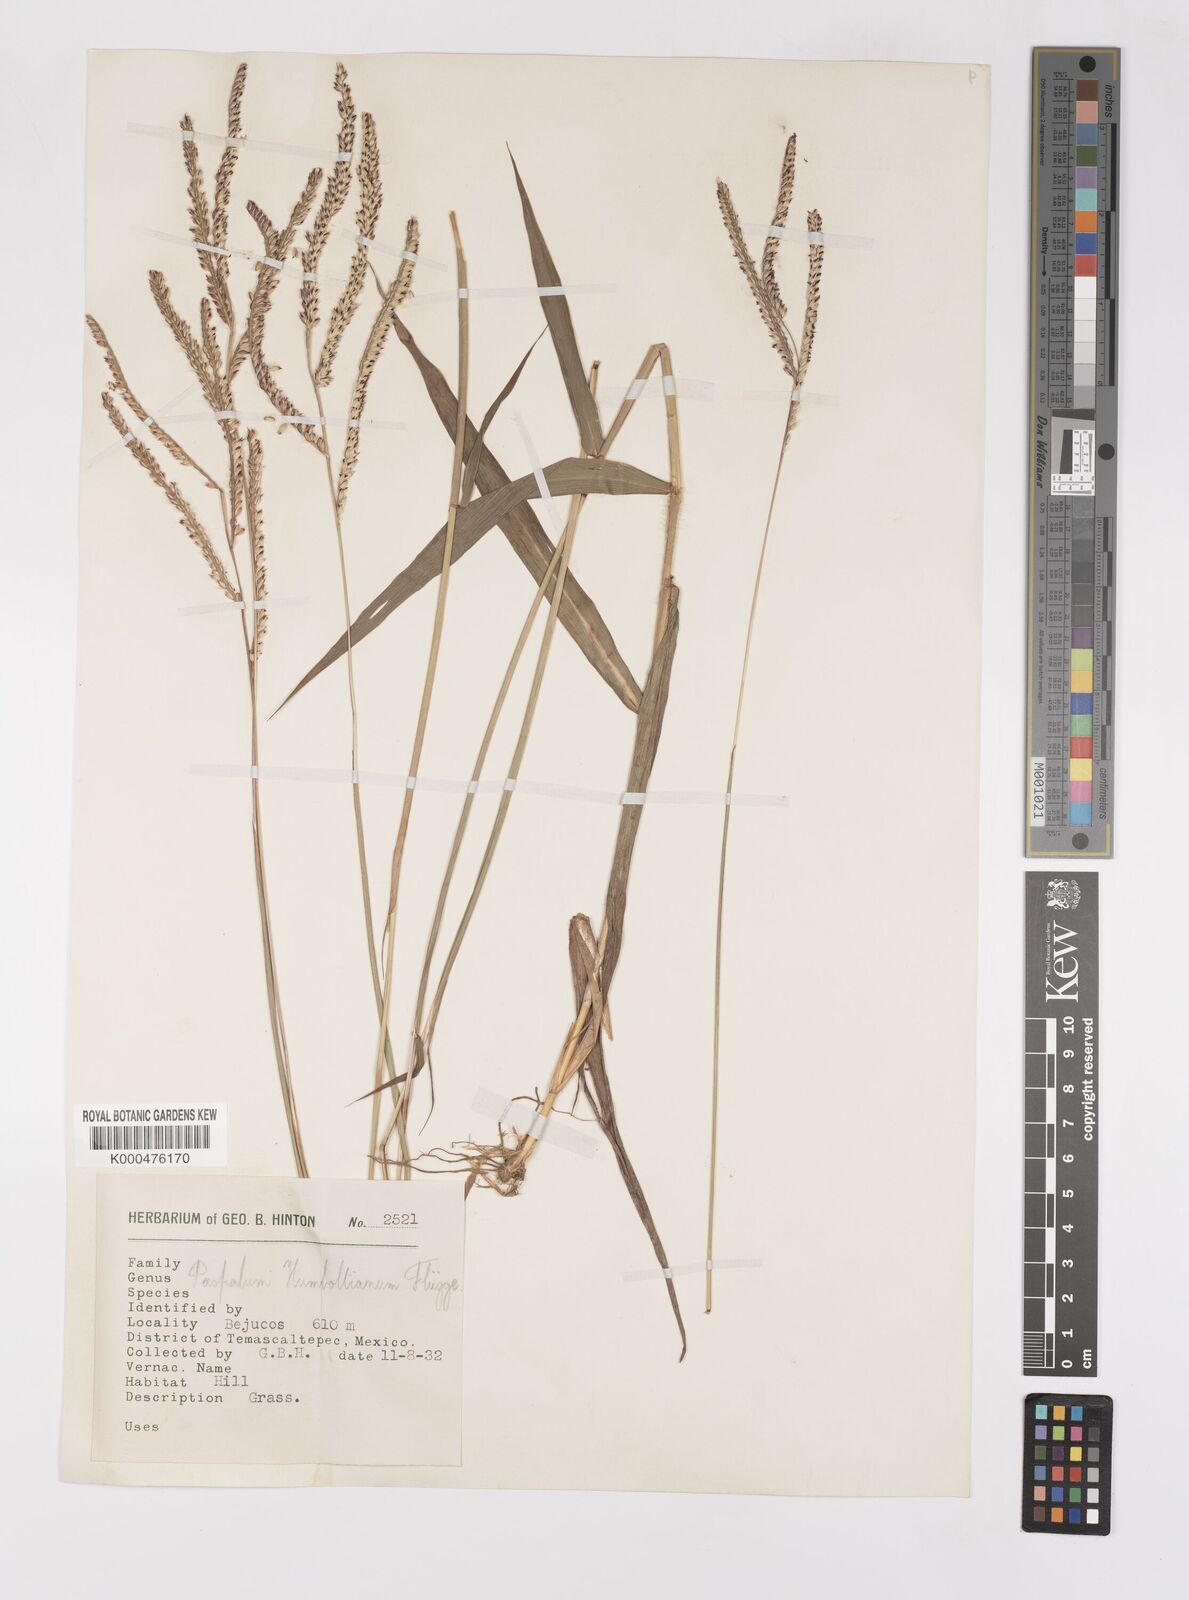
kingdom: Plantae
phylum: Tracheophyta
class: Liliopsida
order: Poales
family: Poaceae
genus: Paspalum
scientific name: Paspalum
